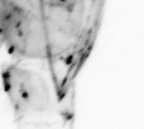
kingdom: Animalia
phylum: Arthropoda
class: Copepoda
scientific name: Copepoda
